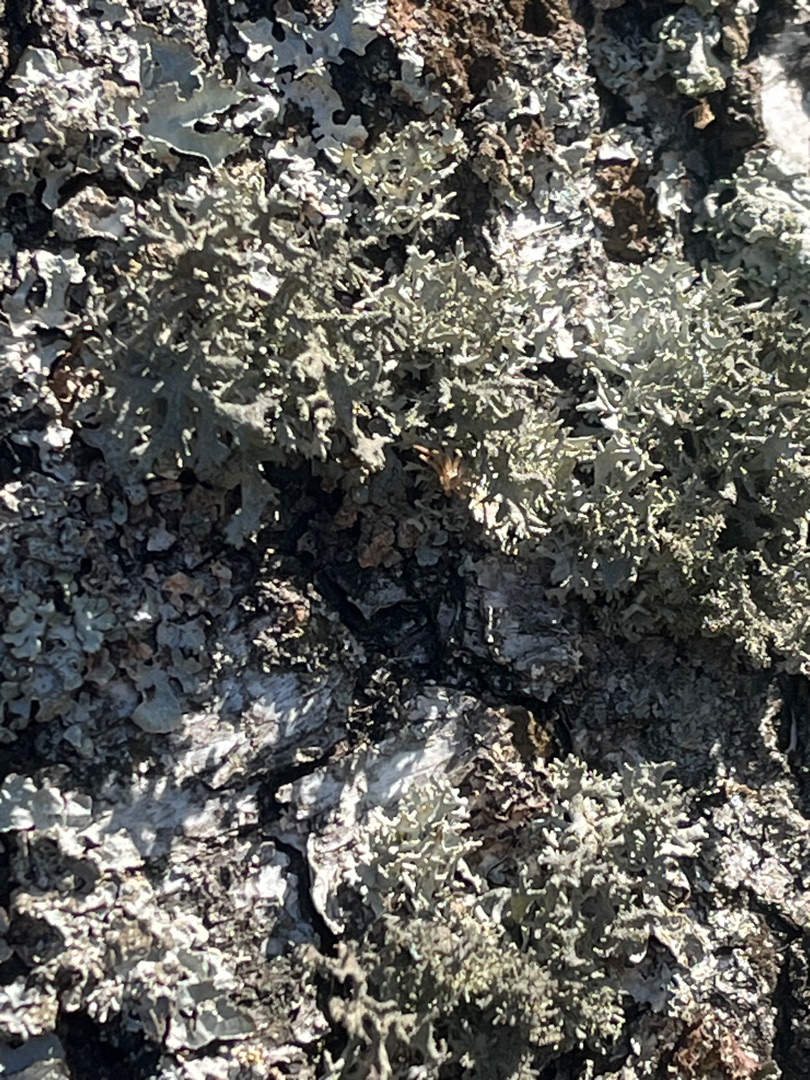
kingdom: Fungi
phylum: Ascomycota
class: Lecanoromycetes
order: Lecanorales
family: Parmeliaceae
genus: Evernia
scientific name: Evernia prunastri
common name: Almindelig slåenlav
